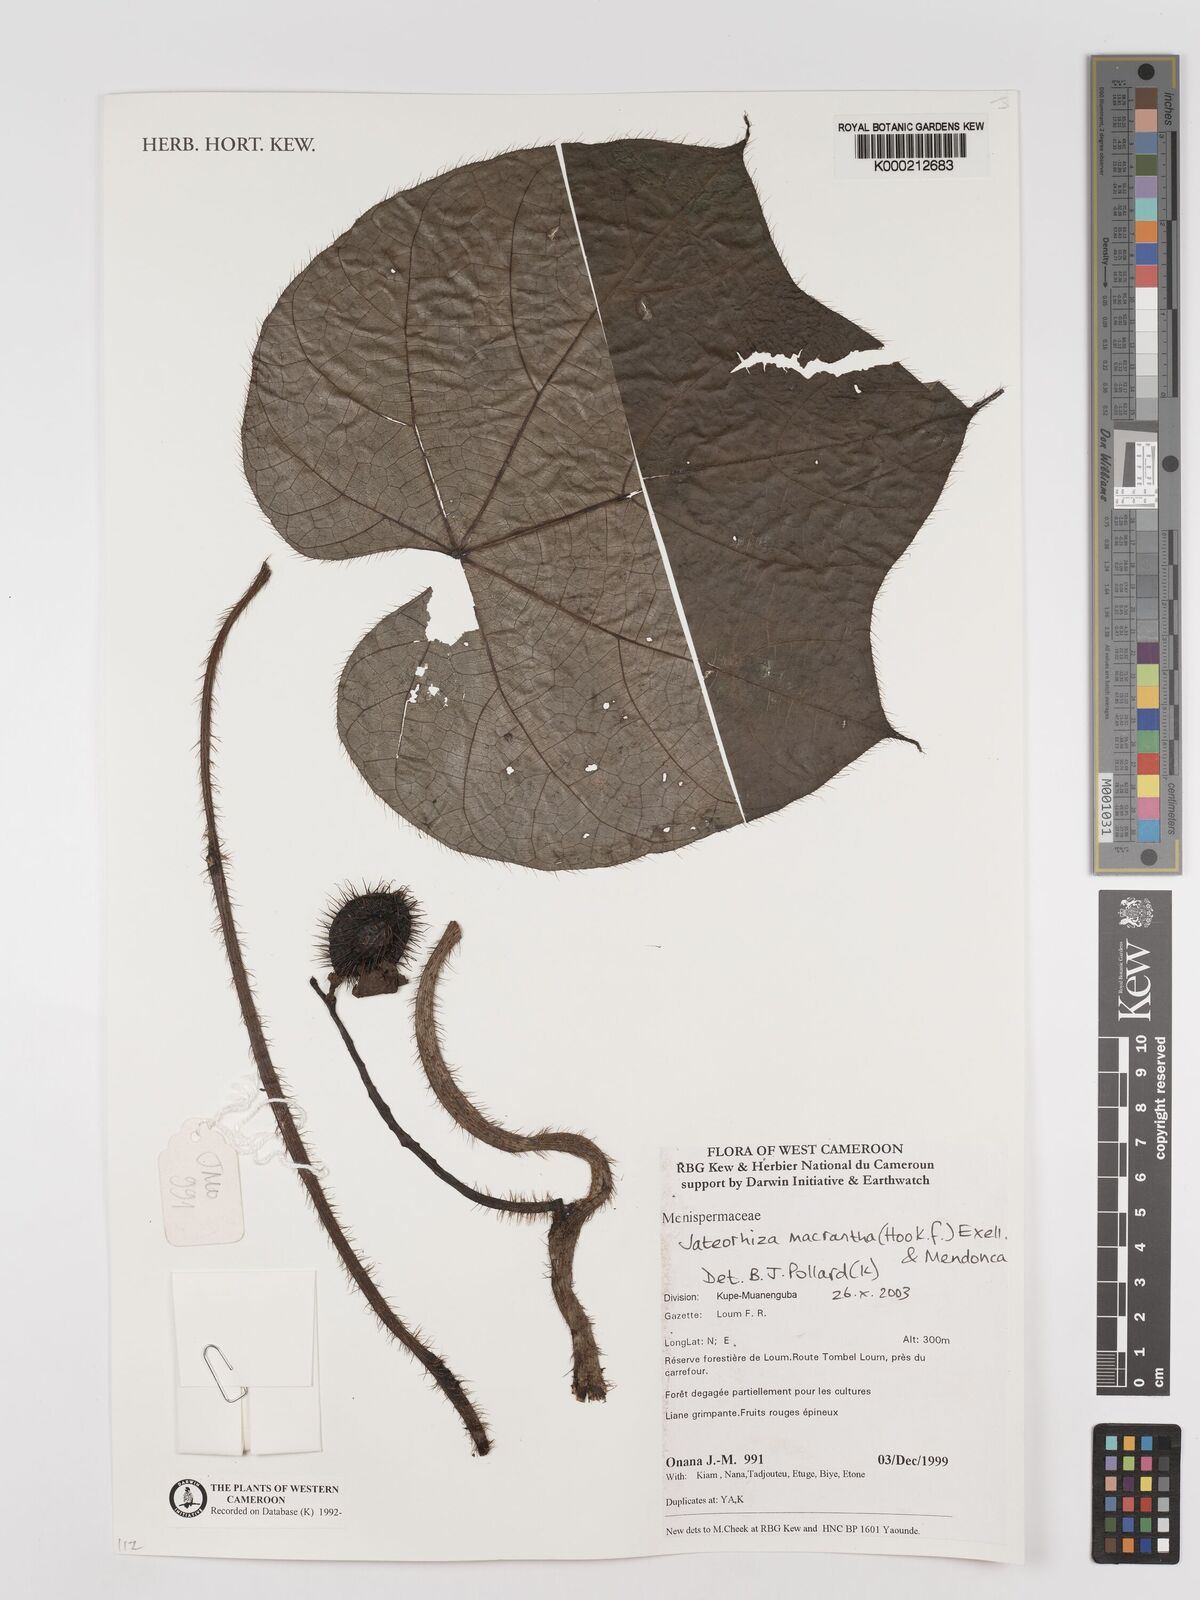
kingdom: Plantae
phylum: Tracheophyta
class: Magnoliopsida
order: Ranunculales
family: Menispermaceae
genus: Jateorhiza
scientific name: Jateorhiza
